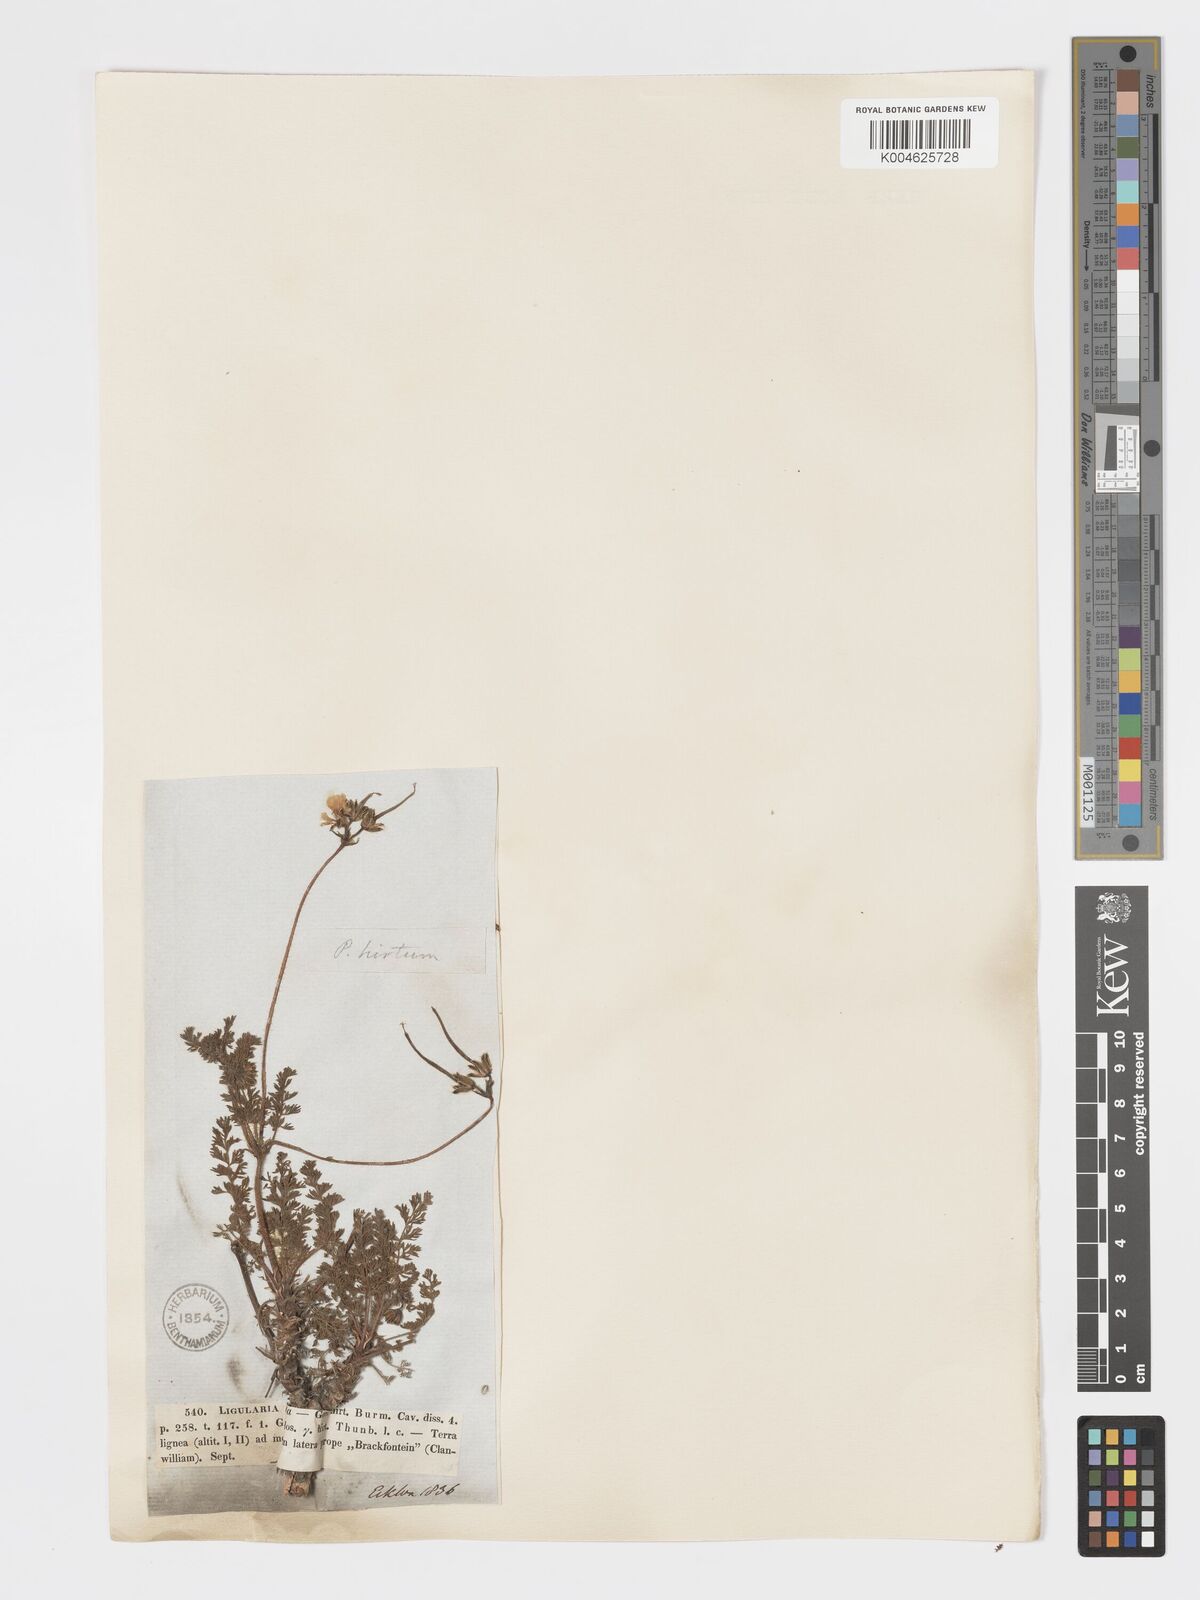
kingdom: Plantae
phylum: Tracheophyta
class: Magnoliopsida
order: Geraniales
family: Geraniaceae
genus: Pelargonium
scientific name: Pelargonium
